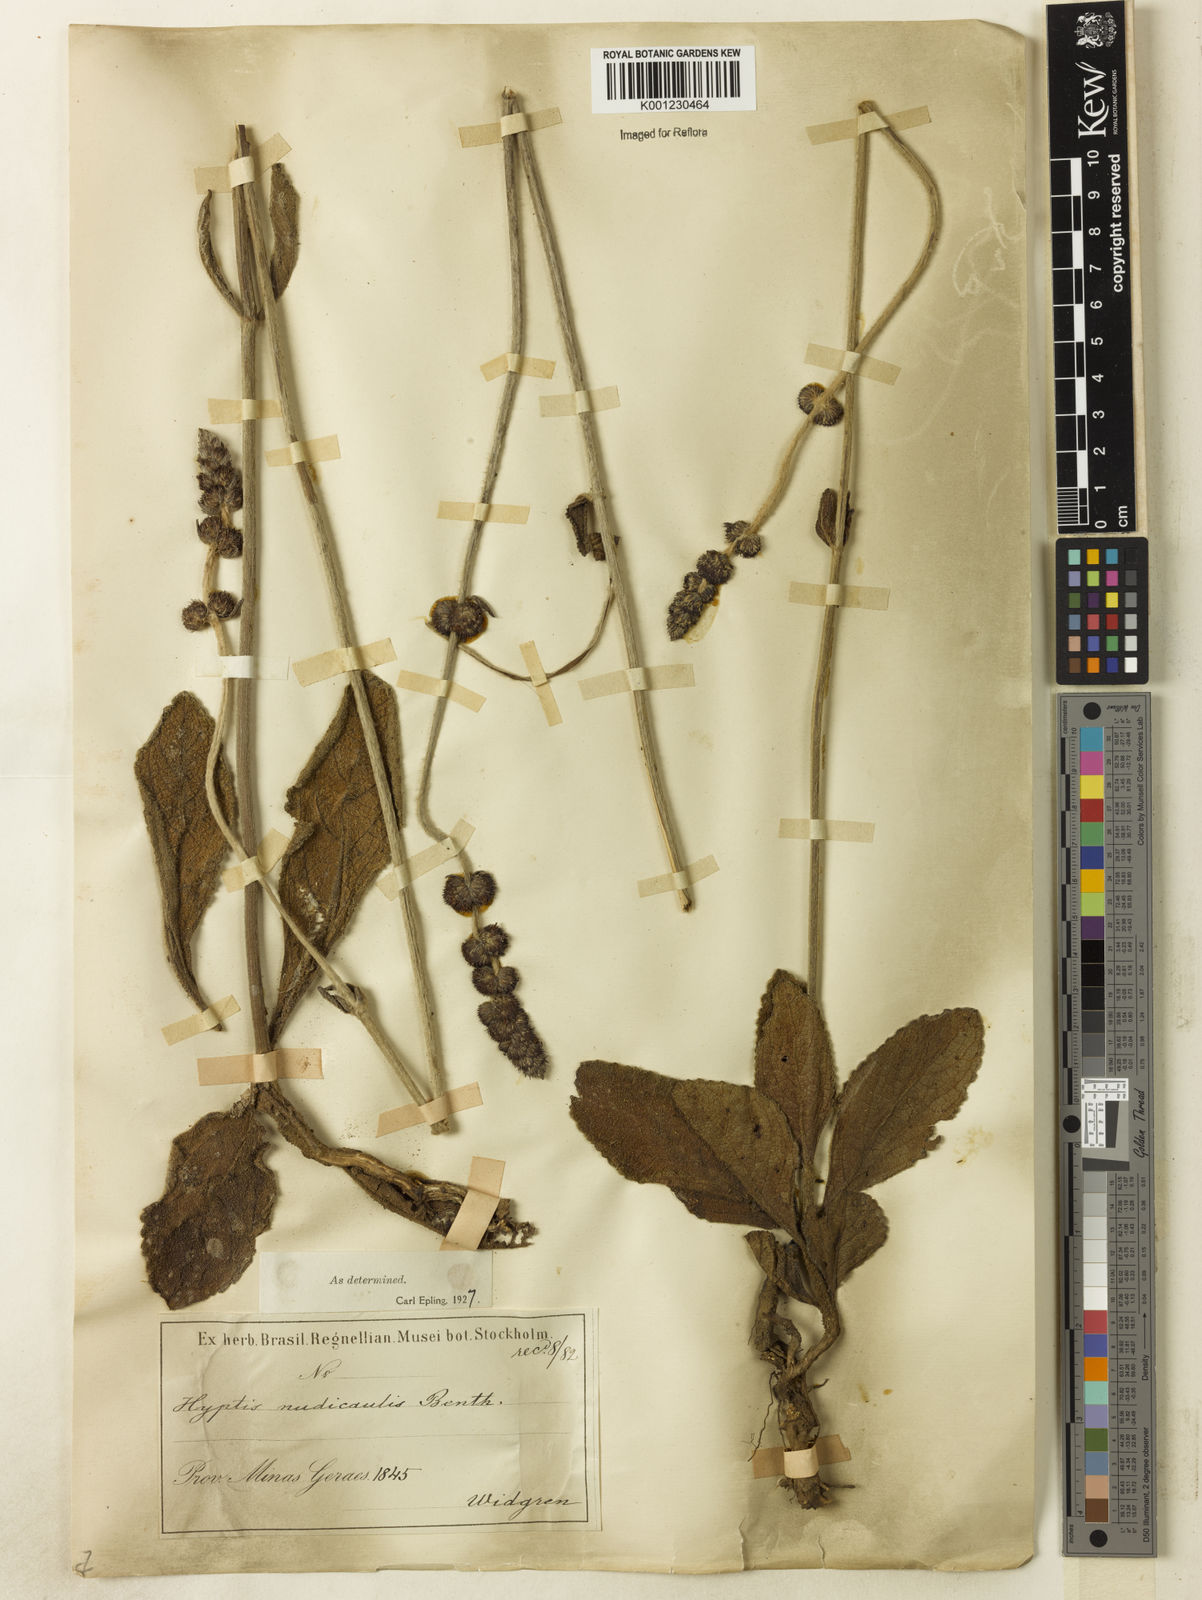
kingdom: Plantae
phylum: Tracheophyta
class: Magnoliopsida
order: Lamiales
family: Lamiaceae
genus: Hyptis
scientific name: Hyptis nudicaulis
